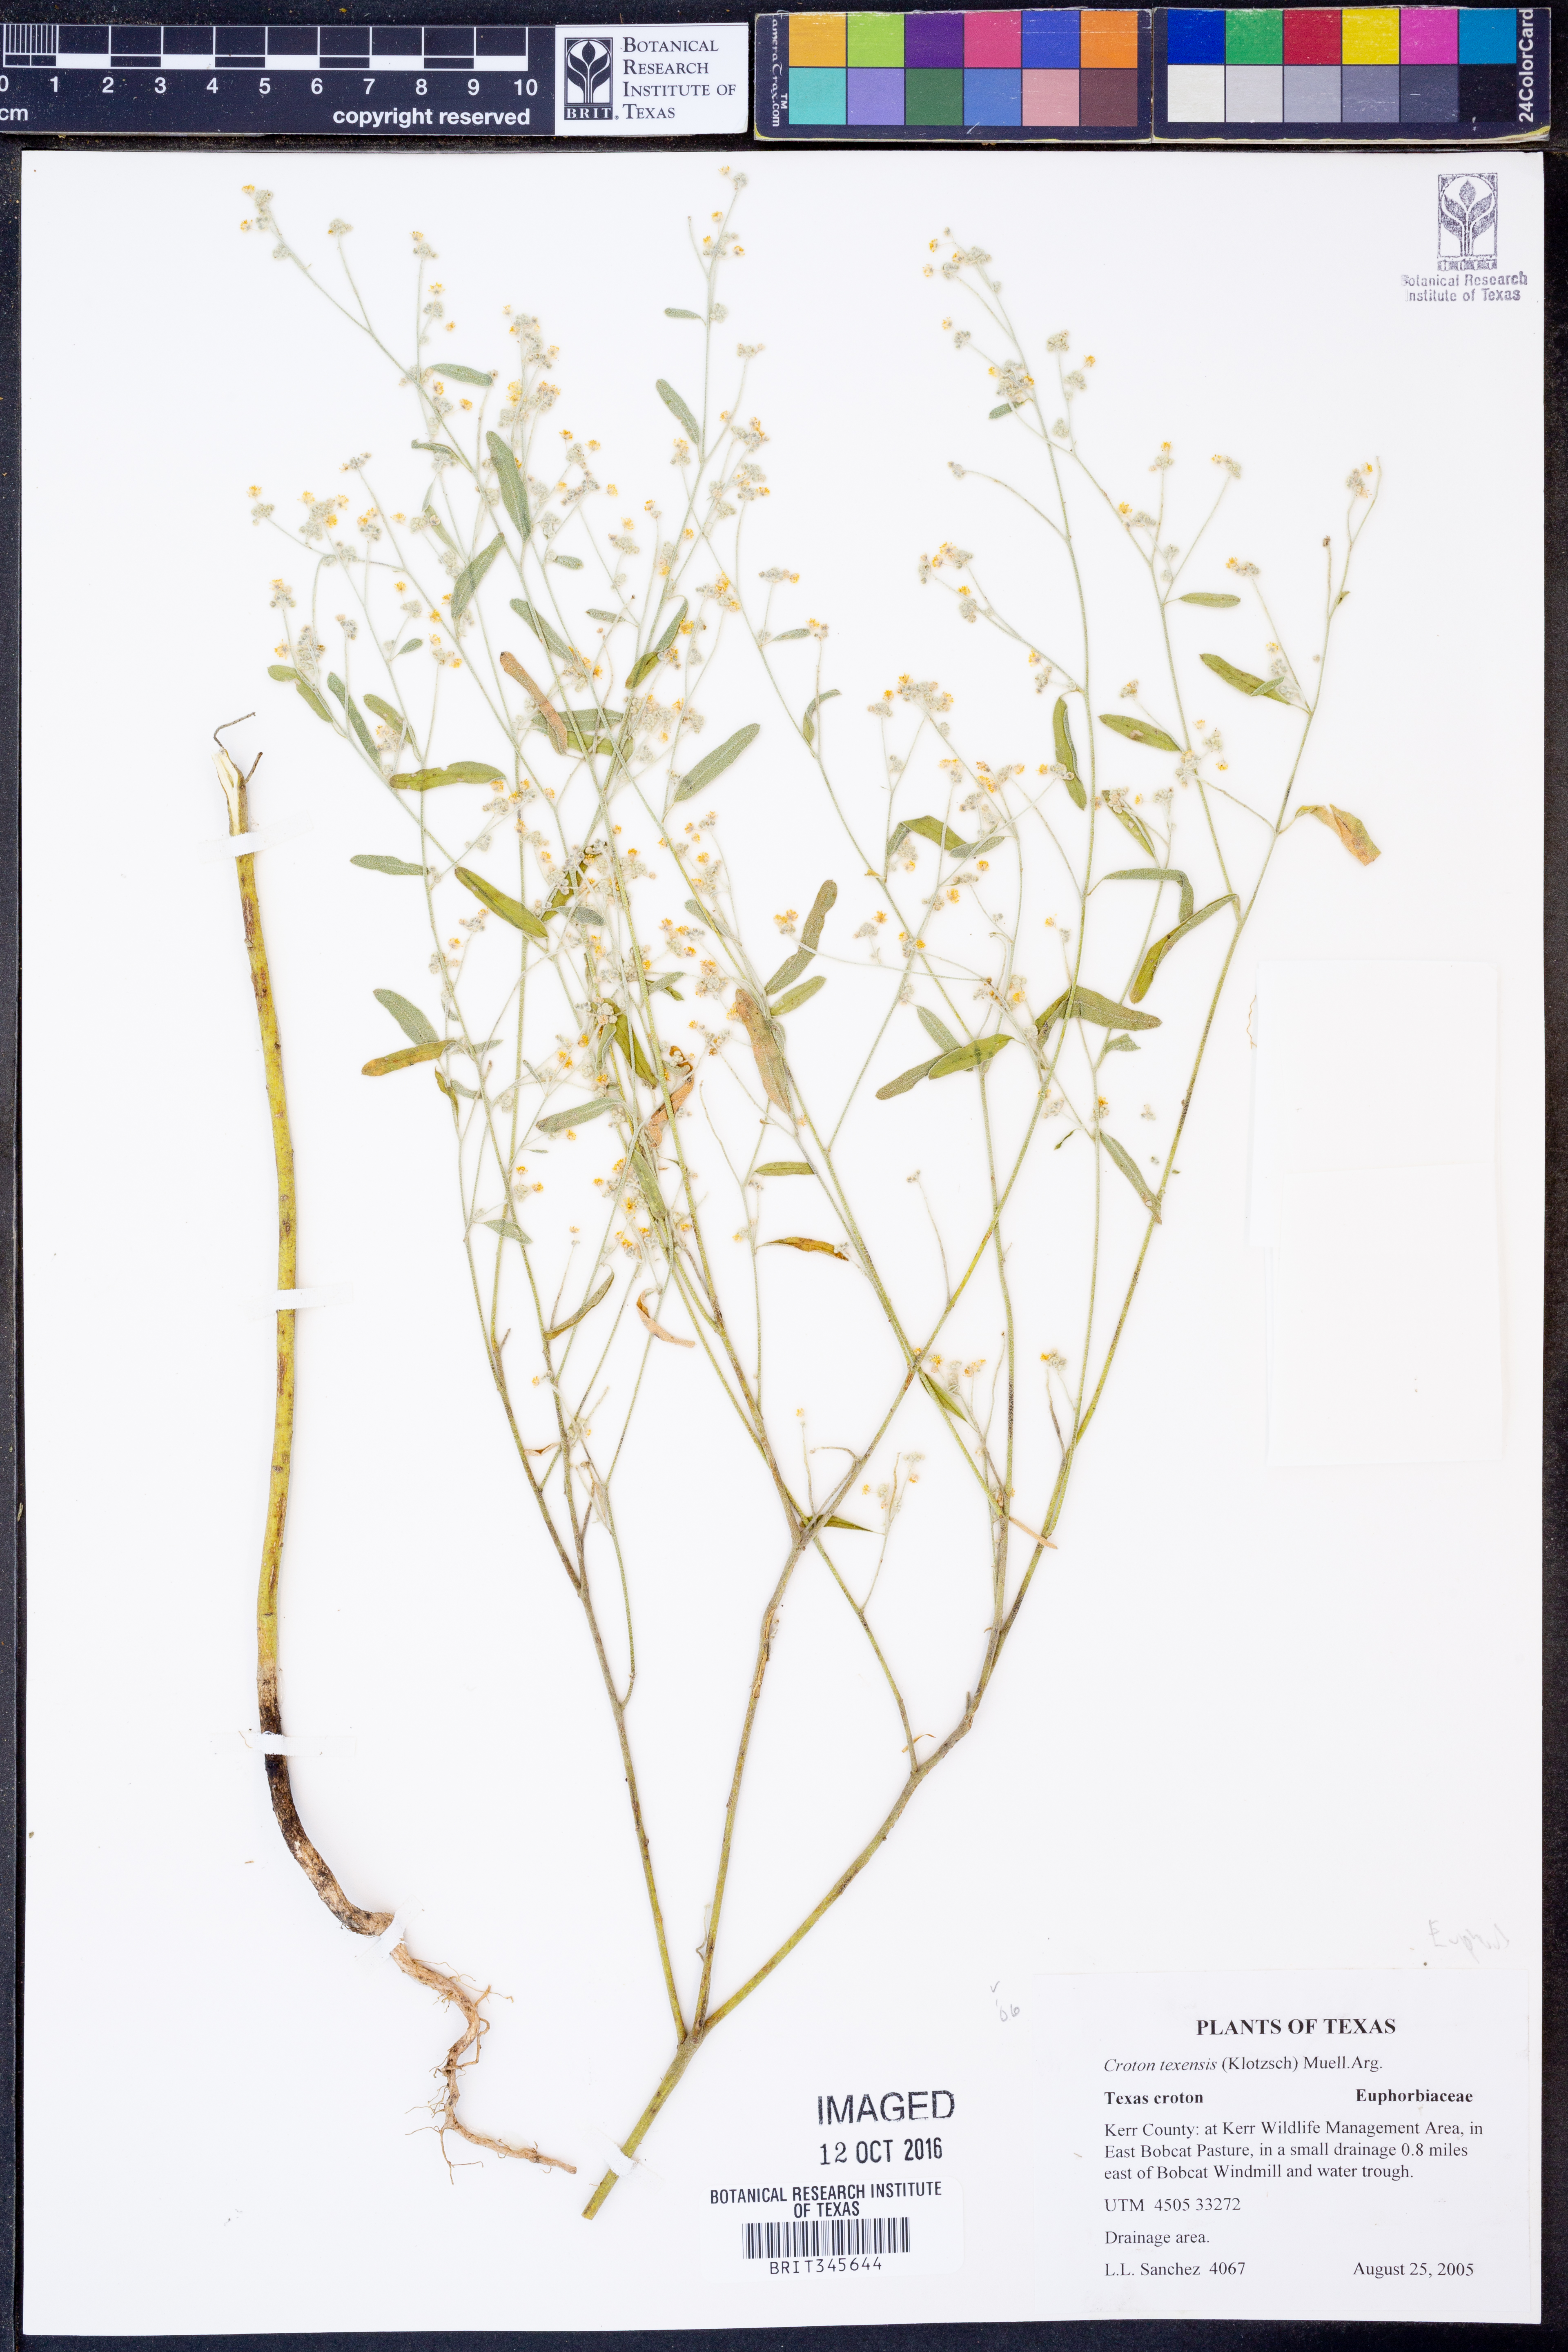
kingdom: Plantae
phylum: Tracheophyta
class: Magnoliopsida
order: Malpighiales
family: Euphorbiaceae
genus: Croton
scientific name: Croton texensis
